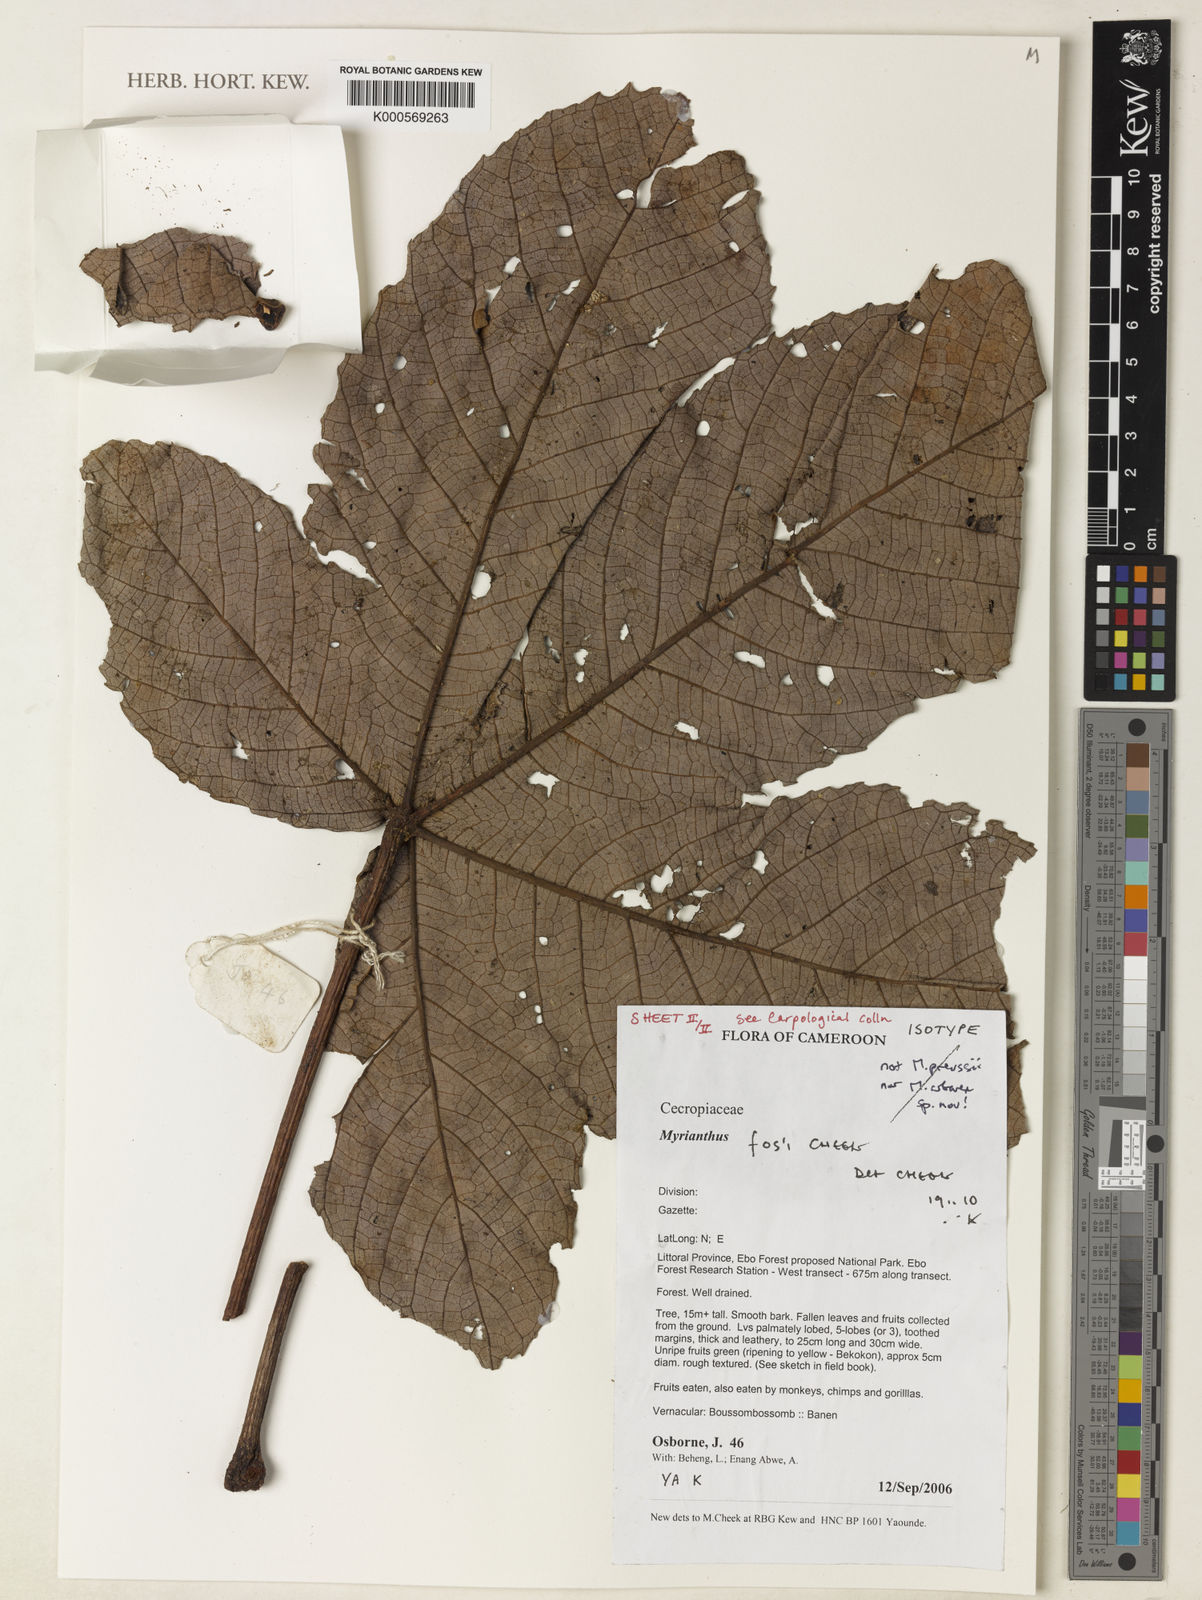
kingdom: Plantae
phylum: Tracheophyta
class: Magnoliopsida
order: Rosales
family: Urticaceae
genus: Myrianthus
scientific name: Myrianthus fosi
